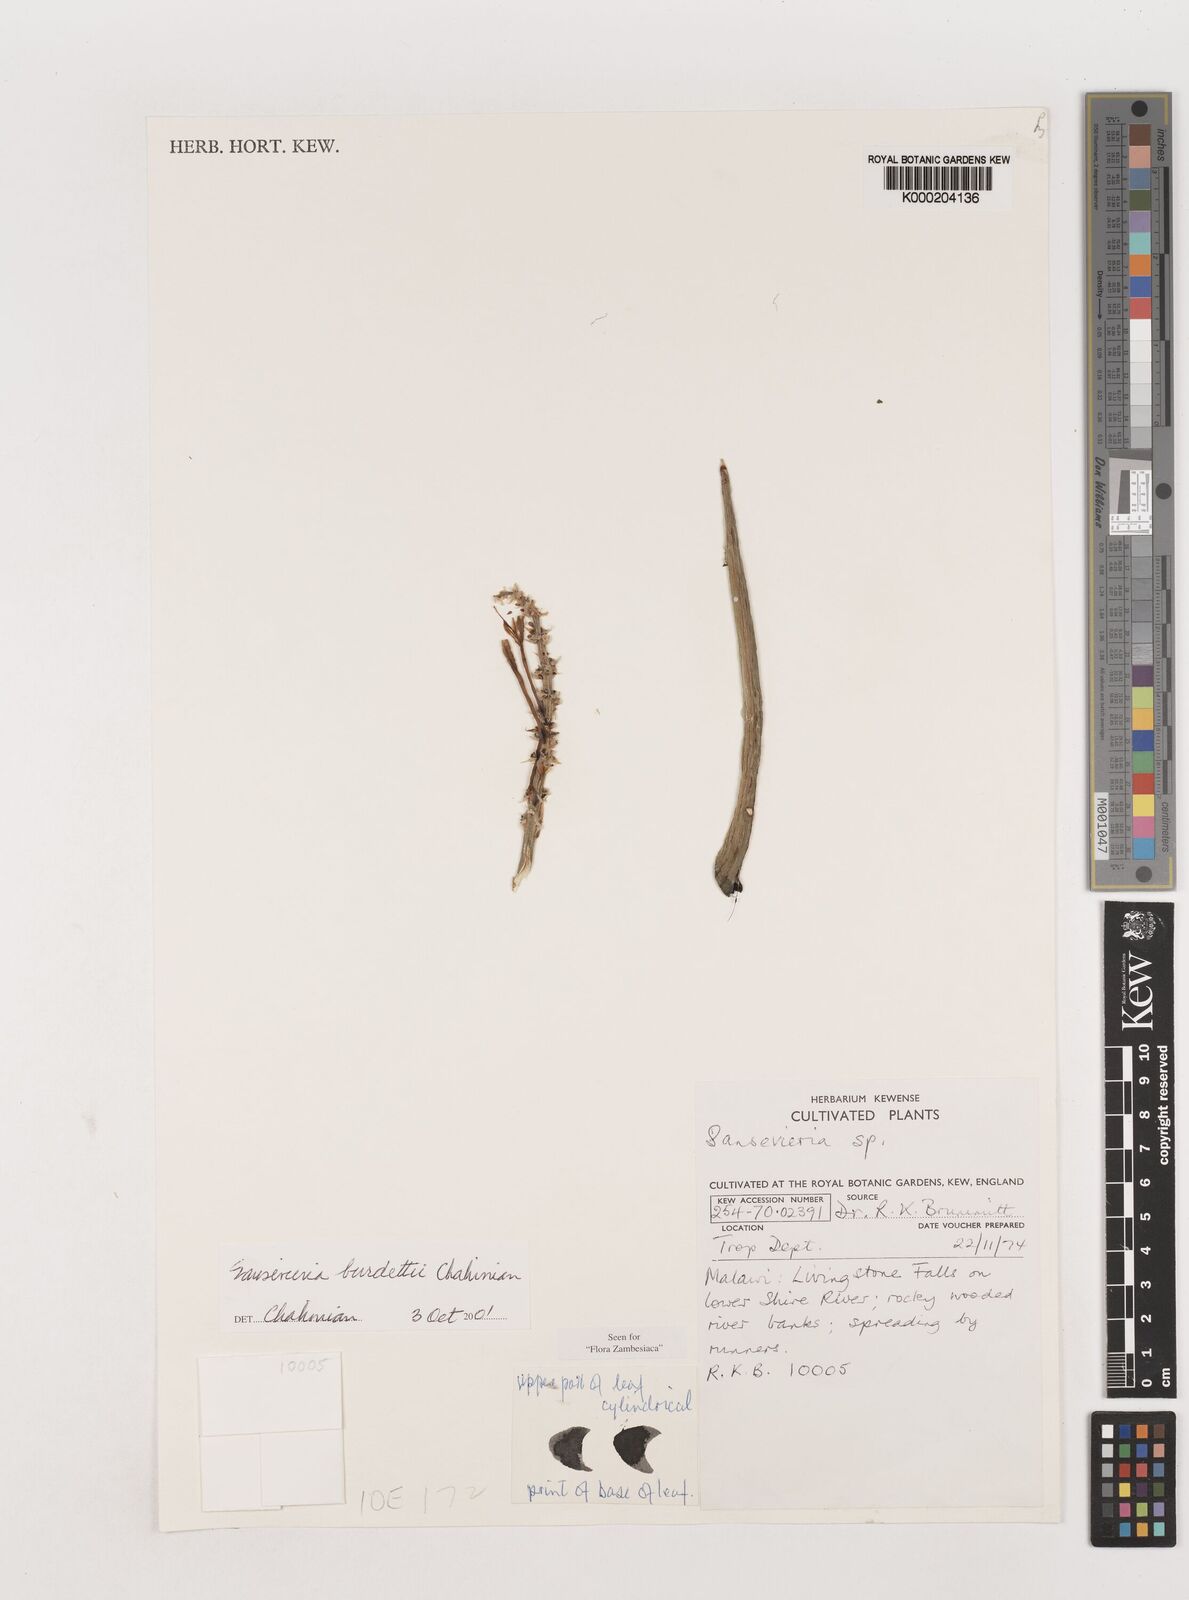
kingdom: Plantae
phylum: Tracheophyta
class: Liliopsida
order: Asparagales
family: Asparagaceae
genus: Dracaena
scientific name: Dracaena burdettii
